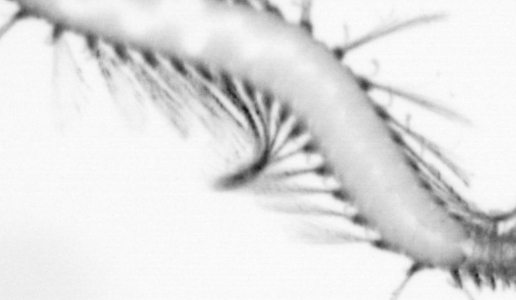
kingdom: Animalia
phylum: Annelida
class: Polychaeta
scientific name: Polychaeta
